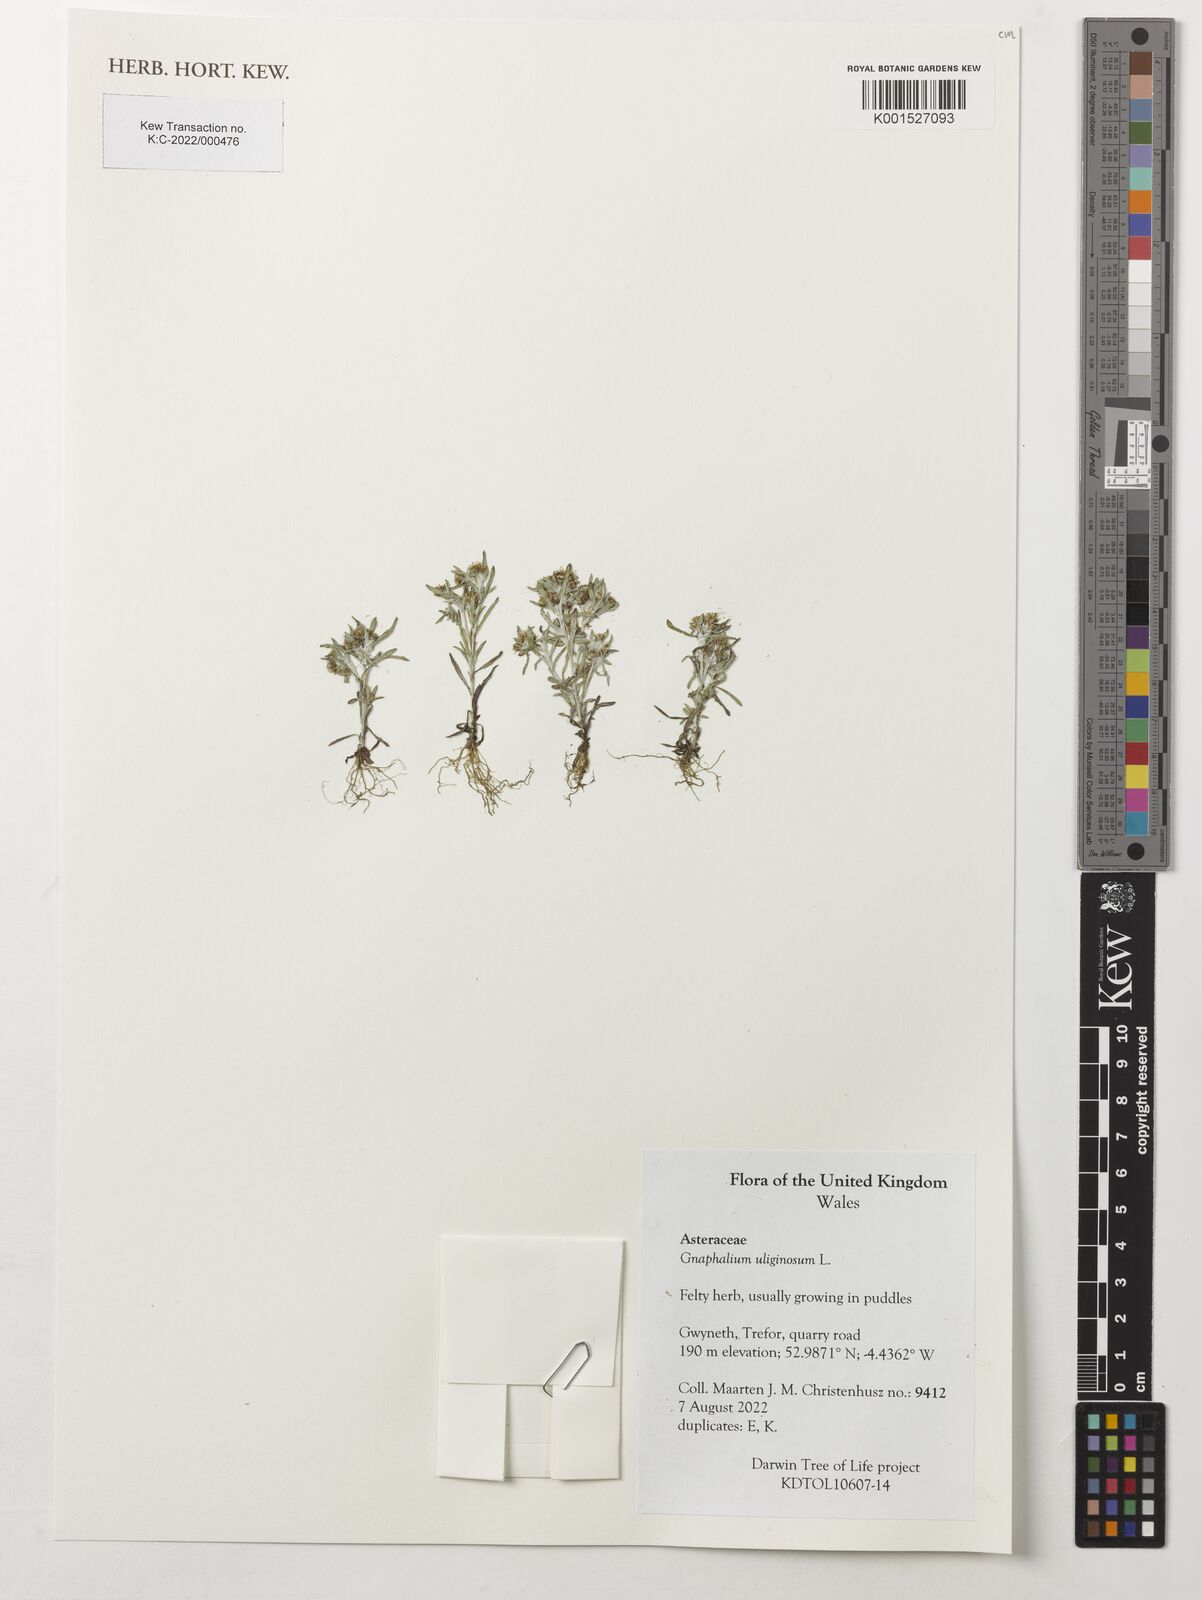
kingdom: Plantae
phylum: Tracheophyta
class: Magnoliopsida
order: Asterales
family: Asteraceae
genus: Gnaphalium
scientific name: Gnaphalium uliginosum
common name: Marsh cudweed
